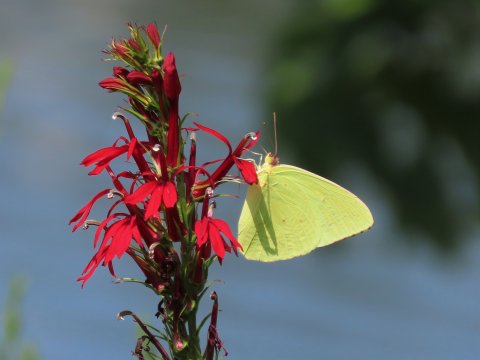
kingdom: Animalia
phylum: Arthropoda
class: Insecta
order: Lepidoptera
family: Pieridae
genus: Phoebis
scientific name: Phoebis sennae
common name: Cloudless Sulphur
